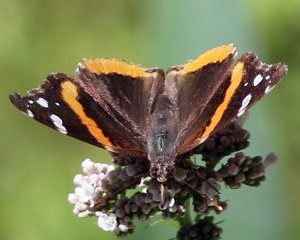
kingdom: Animalia
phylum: Arthropoda
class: Insecta
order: Lepidoptera
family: Nymphalidae
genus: Vanessa
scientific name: Vanessa atalanta
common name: Red Admiral
